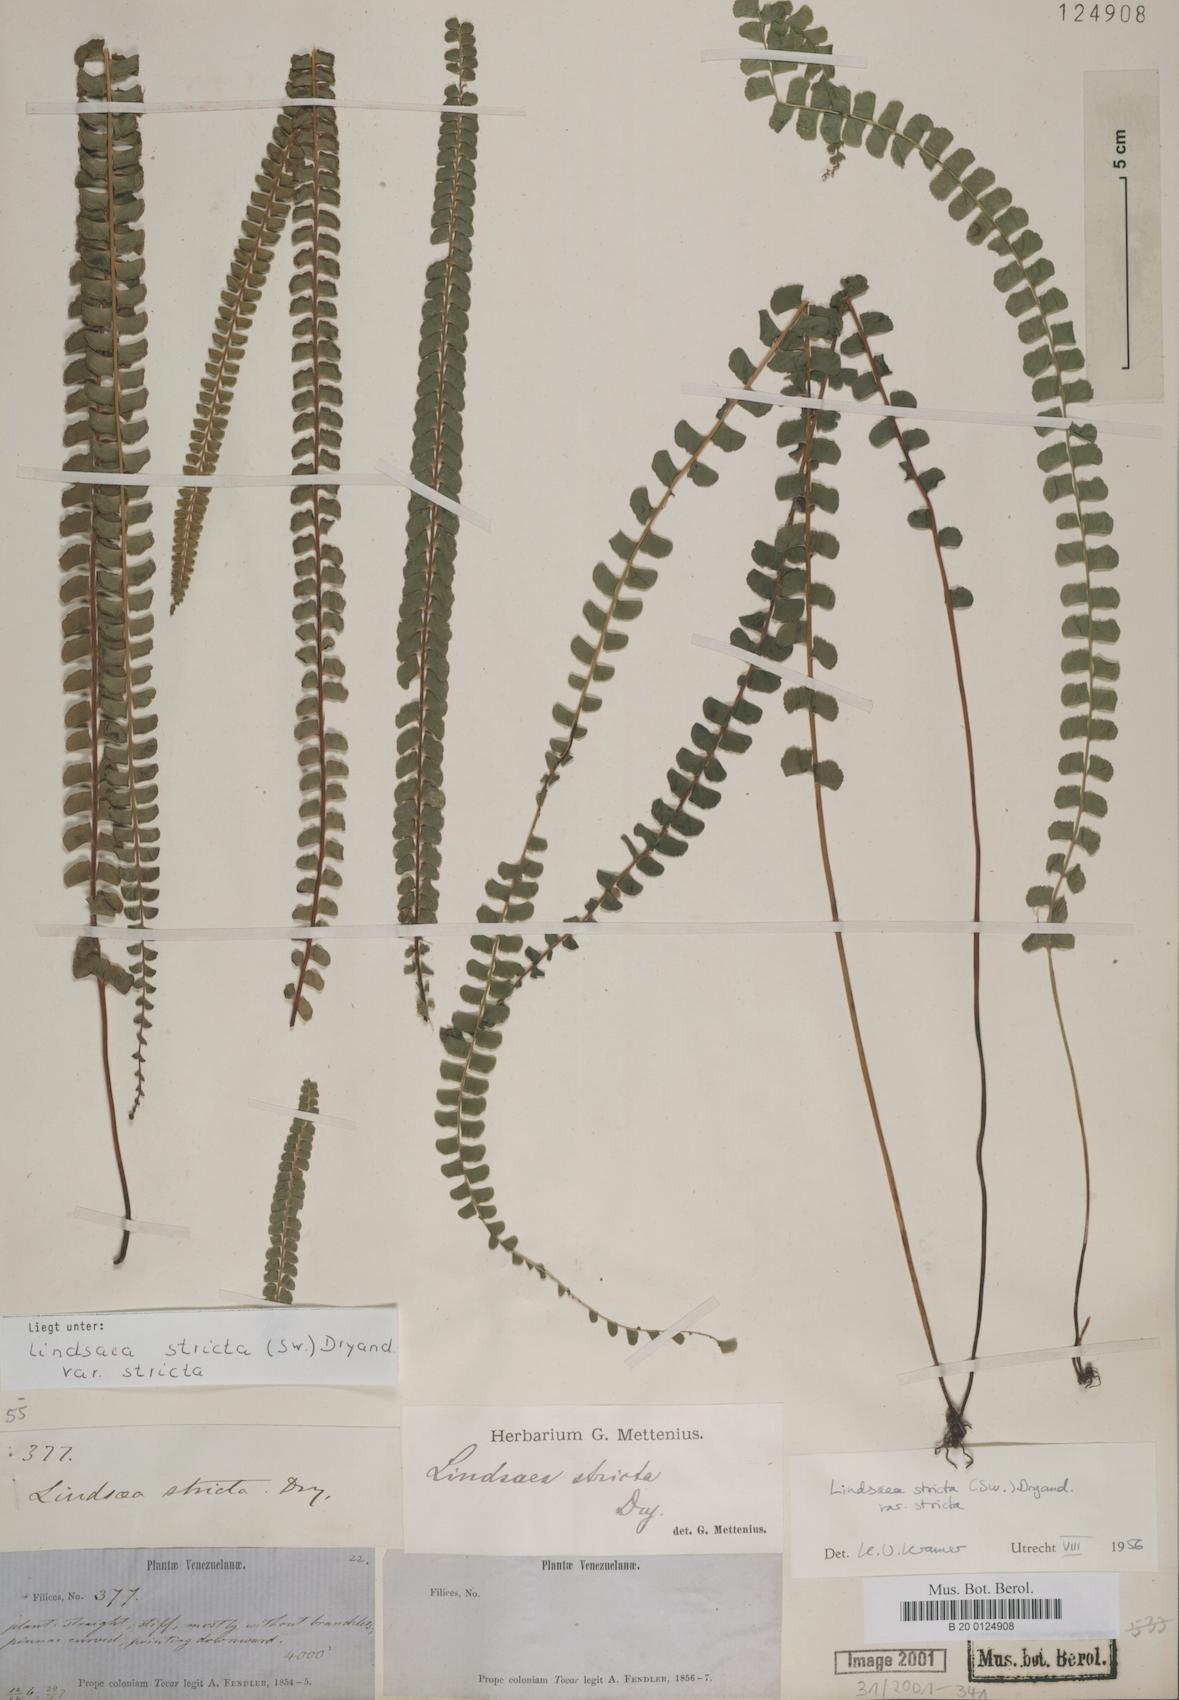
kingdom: Plantae
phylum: Tracheophyta
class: Polypodiopsida
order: Polypodiales
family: Lindsaeaceae
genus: Lindsaea
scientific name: Lindsaea stricta
